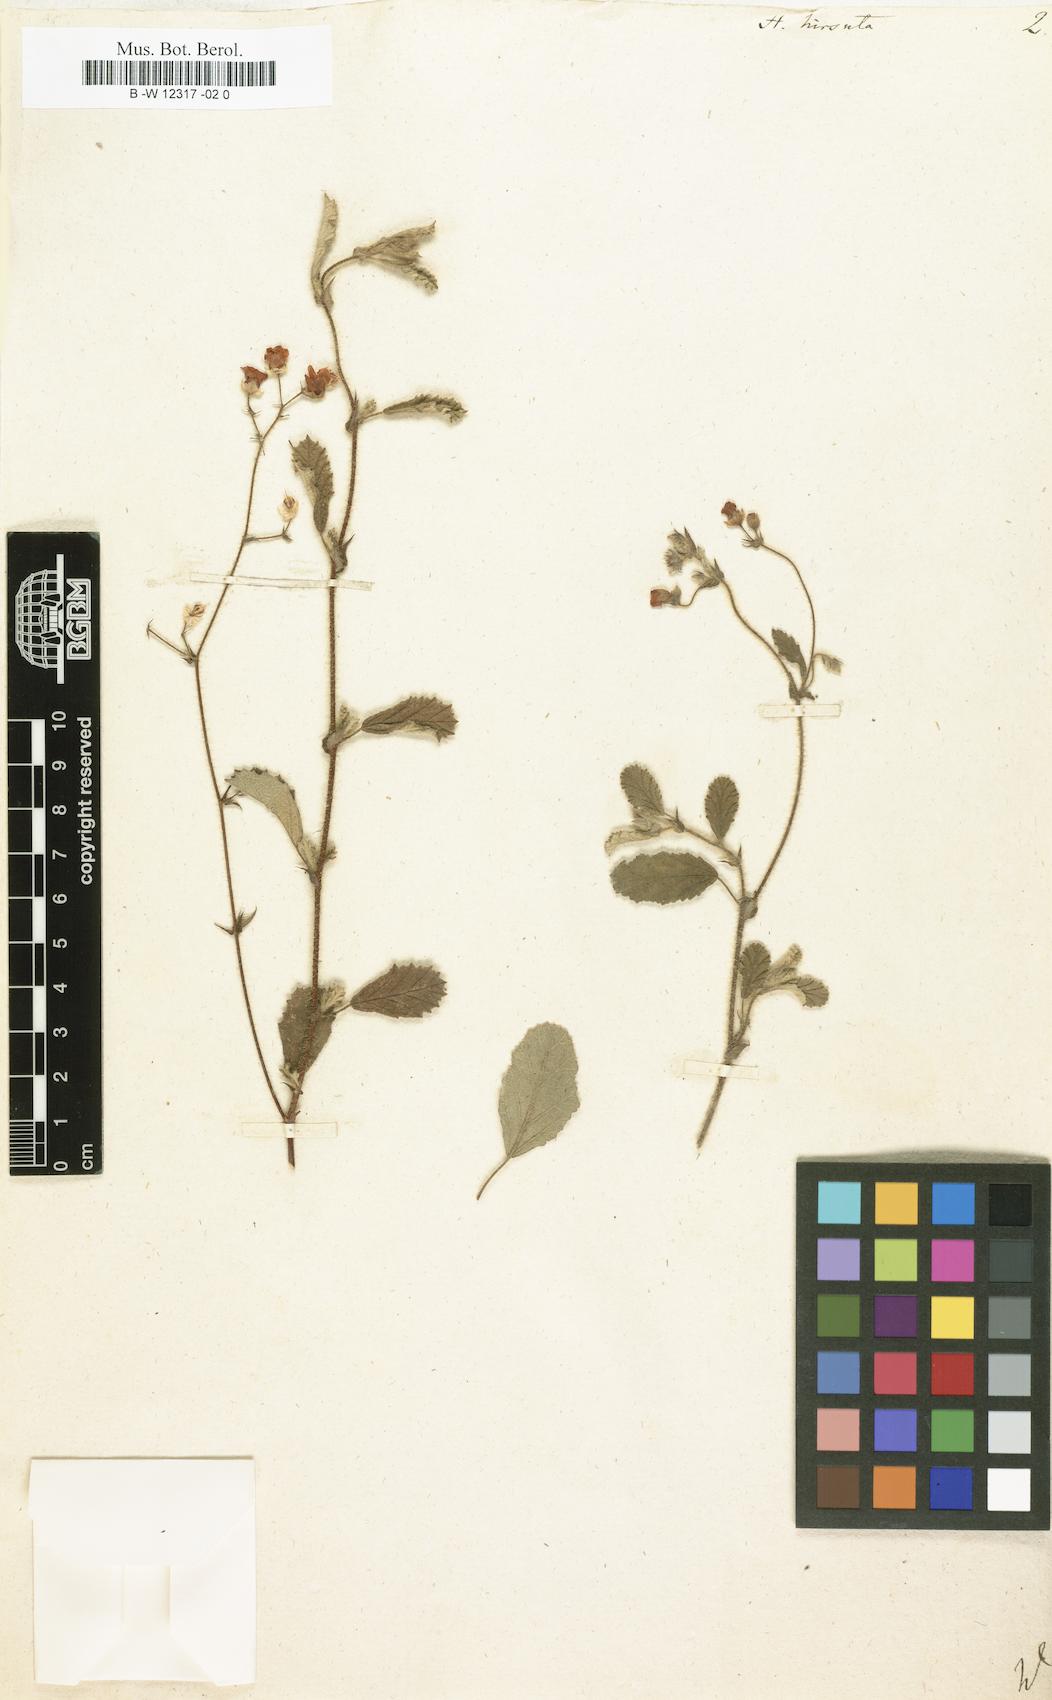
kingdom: Plantae
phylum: Tracheophyta
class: Magnoliopsida
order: Malvales
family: Malvaceae
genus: Hermannia
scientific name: Hermannia
